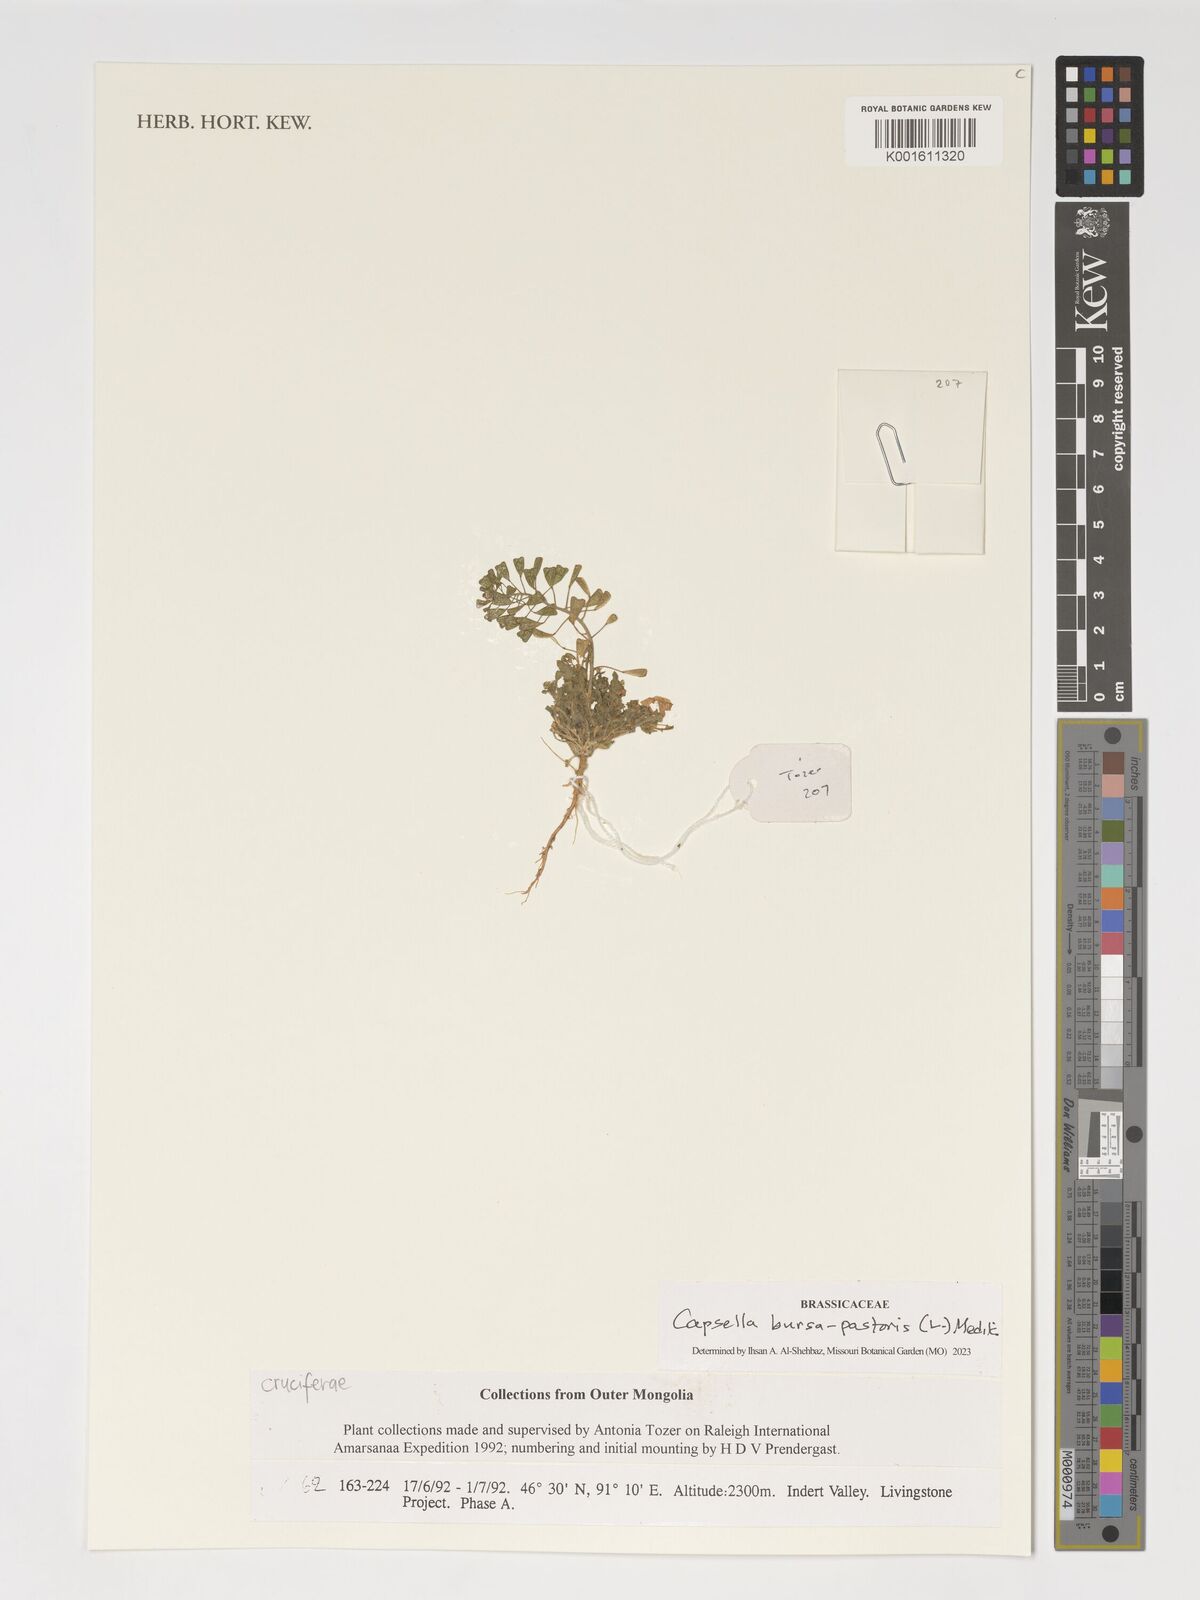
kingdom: Plantae
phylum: Tracheophyta
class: Magnoliopsida
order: Brassicales
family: Brassicaceae
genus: Capsella
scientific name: Capsella bursa-pastoris
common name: Shepherd's purse
